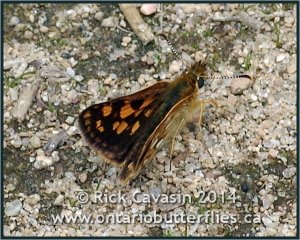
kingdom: Animalia
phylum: Arthropoda
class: Insecta
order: Lepidoptera
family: Hesperiidae
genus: Carterocephalus
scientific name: Carterocephalus palaemon
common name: Chequered Skipper
